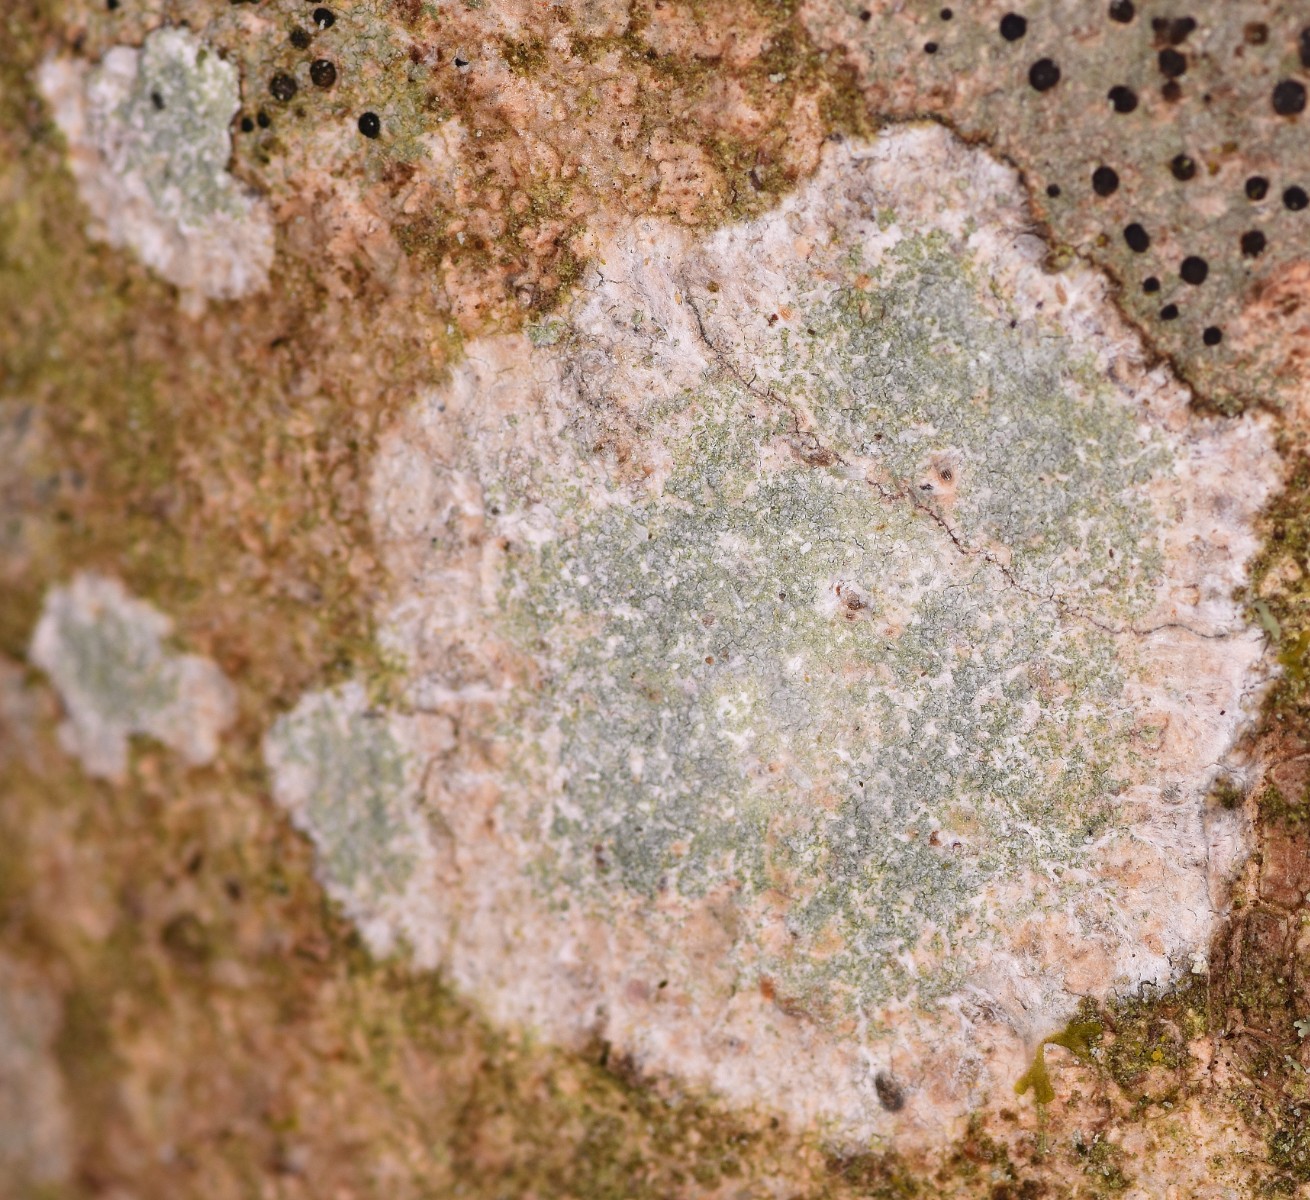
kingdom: Fungi
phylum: Ascomycota
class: Lecanoromycetes
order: Ostropales
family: Phlyctidaceae
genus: Phlyctis
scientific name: Phlyctis argena
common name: almindelig sølvlav
